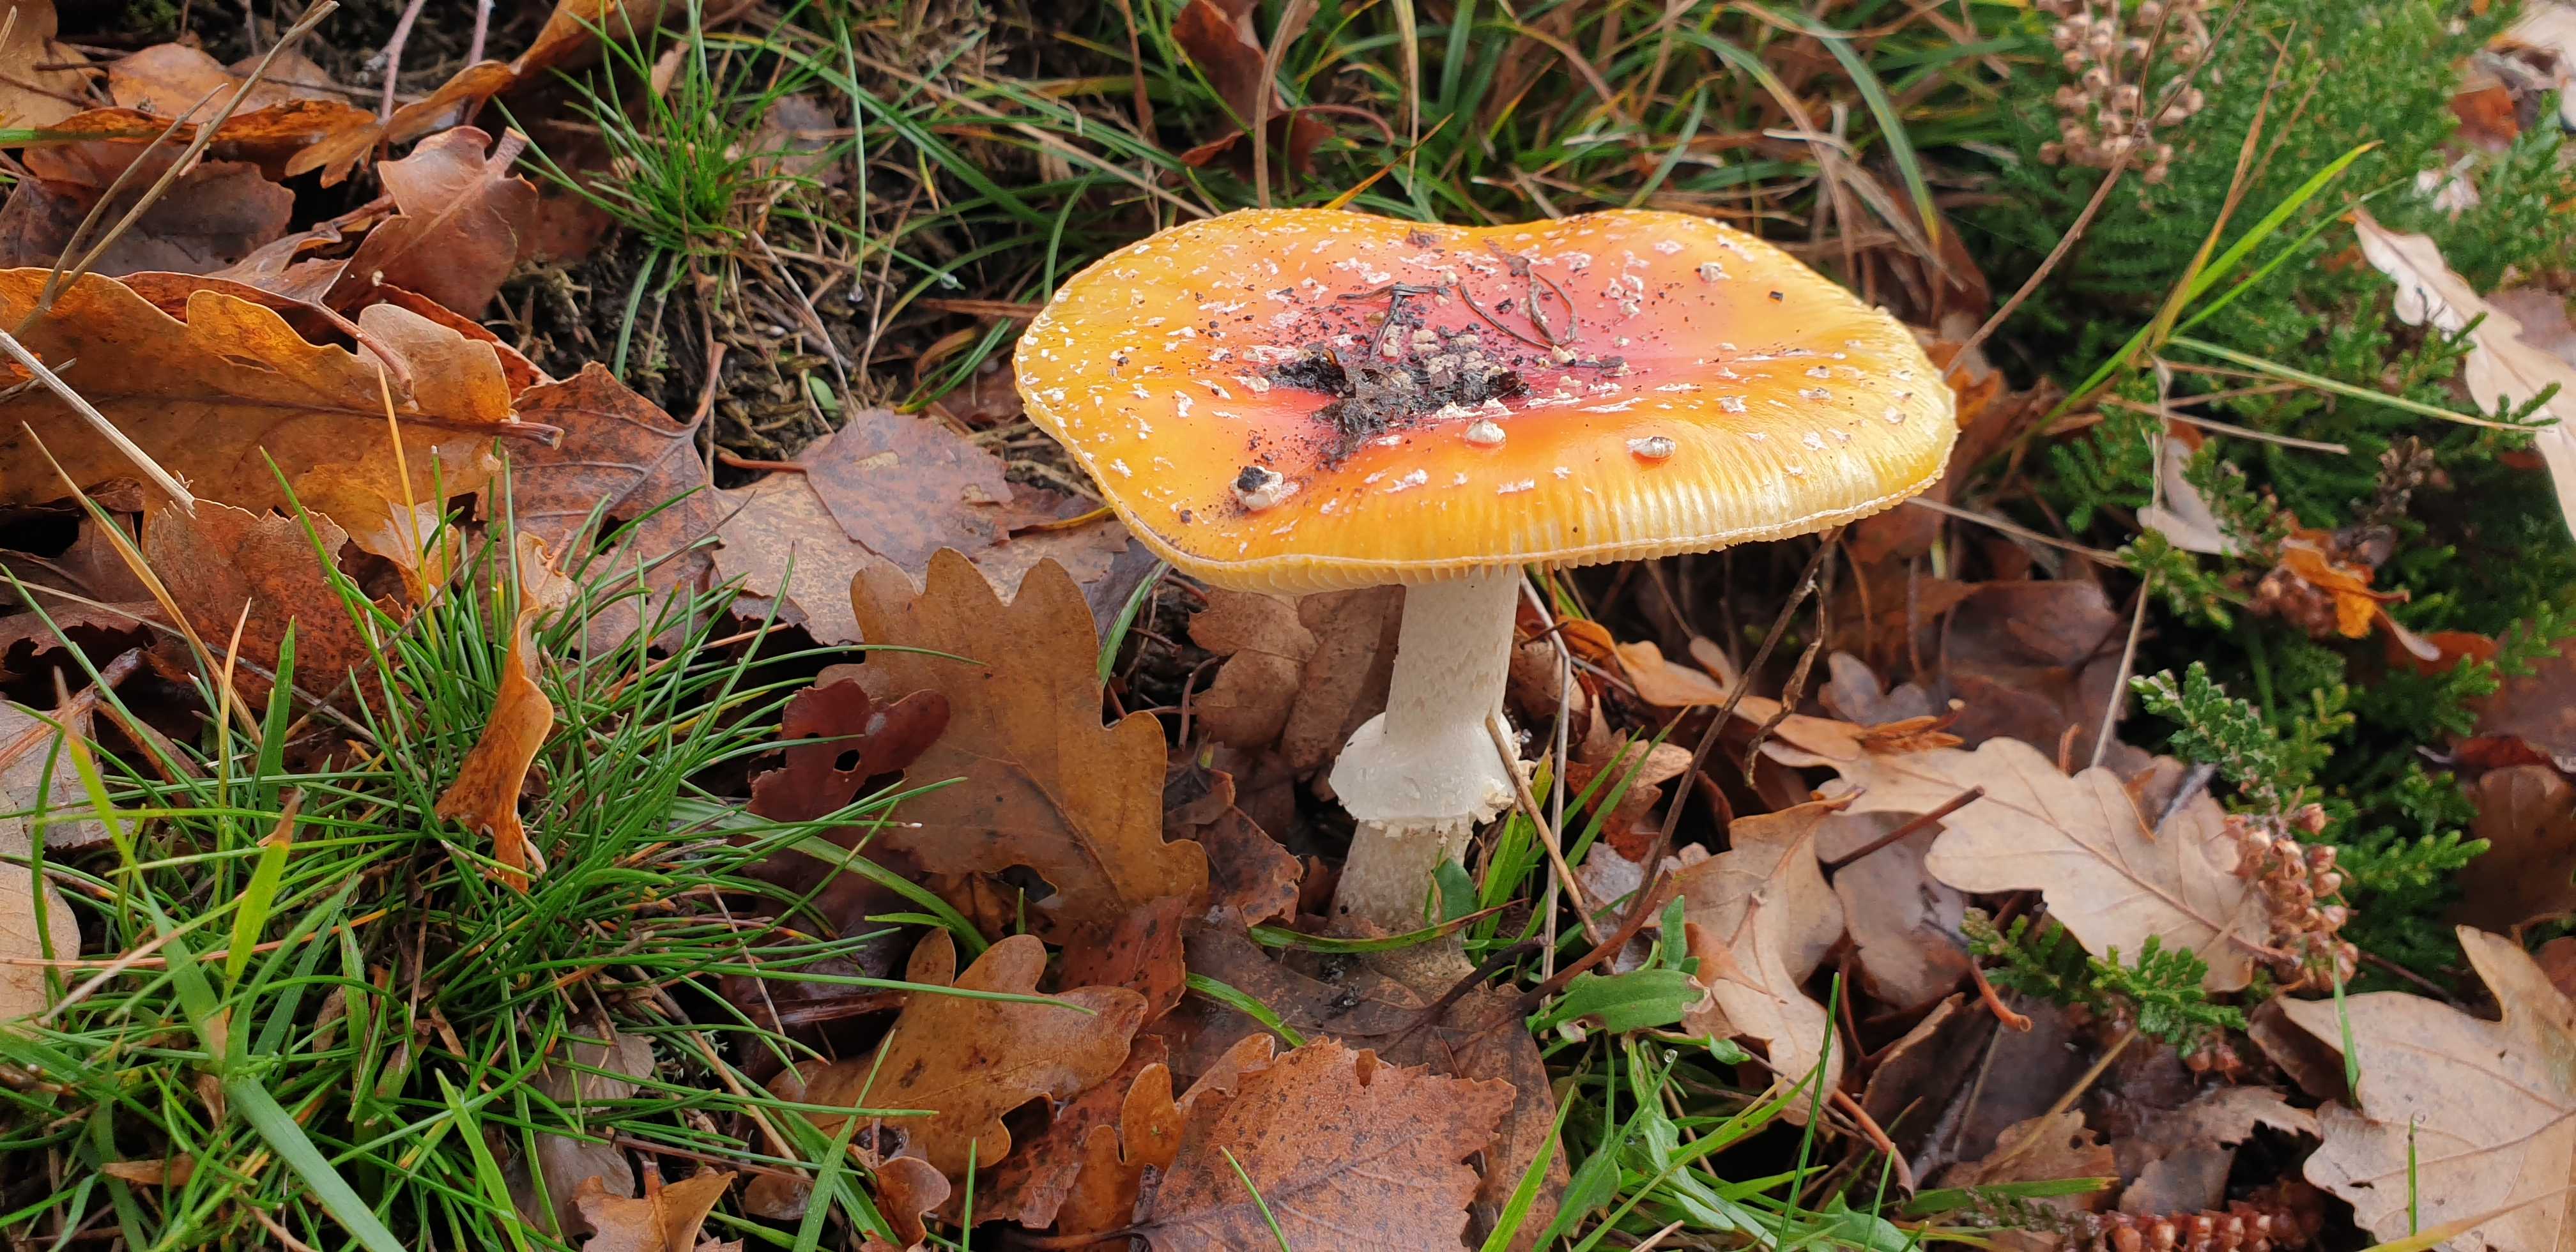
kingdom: Fungi
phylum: Basidiomycota
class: Agaricomycetes
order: Agaricales
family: Amanitaceae
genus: Amanita
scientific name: Amanita muscaria
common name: rød fluesvamp
